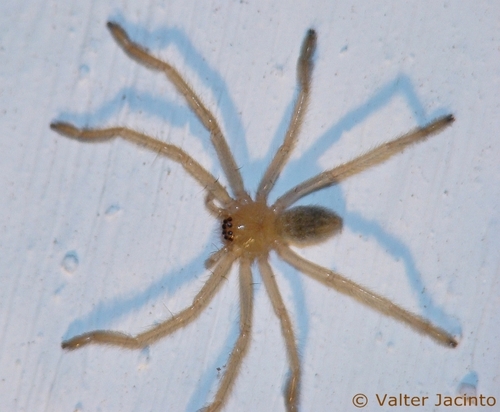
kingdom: Animalia
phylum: Arthropoda
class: Arachnida
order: Araneae
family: Sparassidae
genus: Olios
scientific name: Olios argelasius
